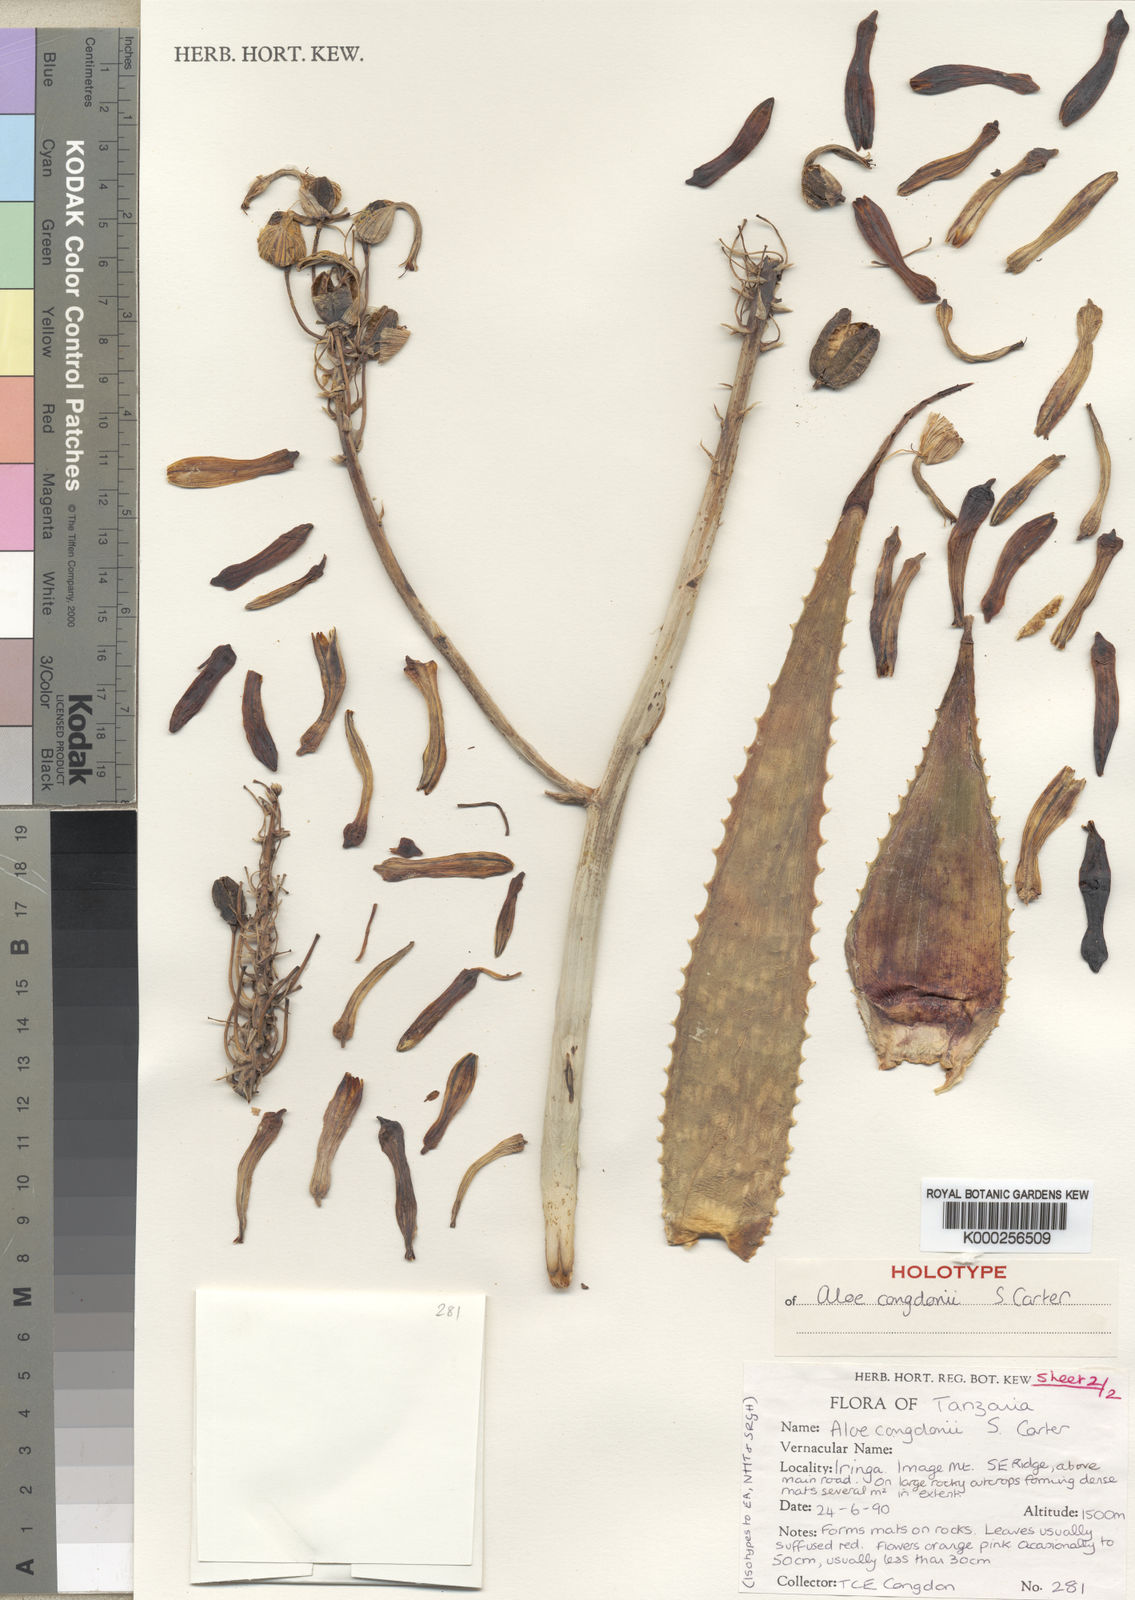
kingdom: Plantae
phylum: Tracheophyta
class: Liliopsida
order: Asparagales
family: Asphodelaceae
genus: Aloe
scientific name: Aloe congdonii
